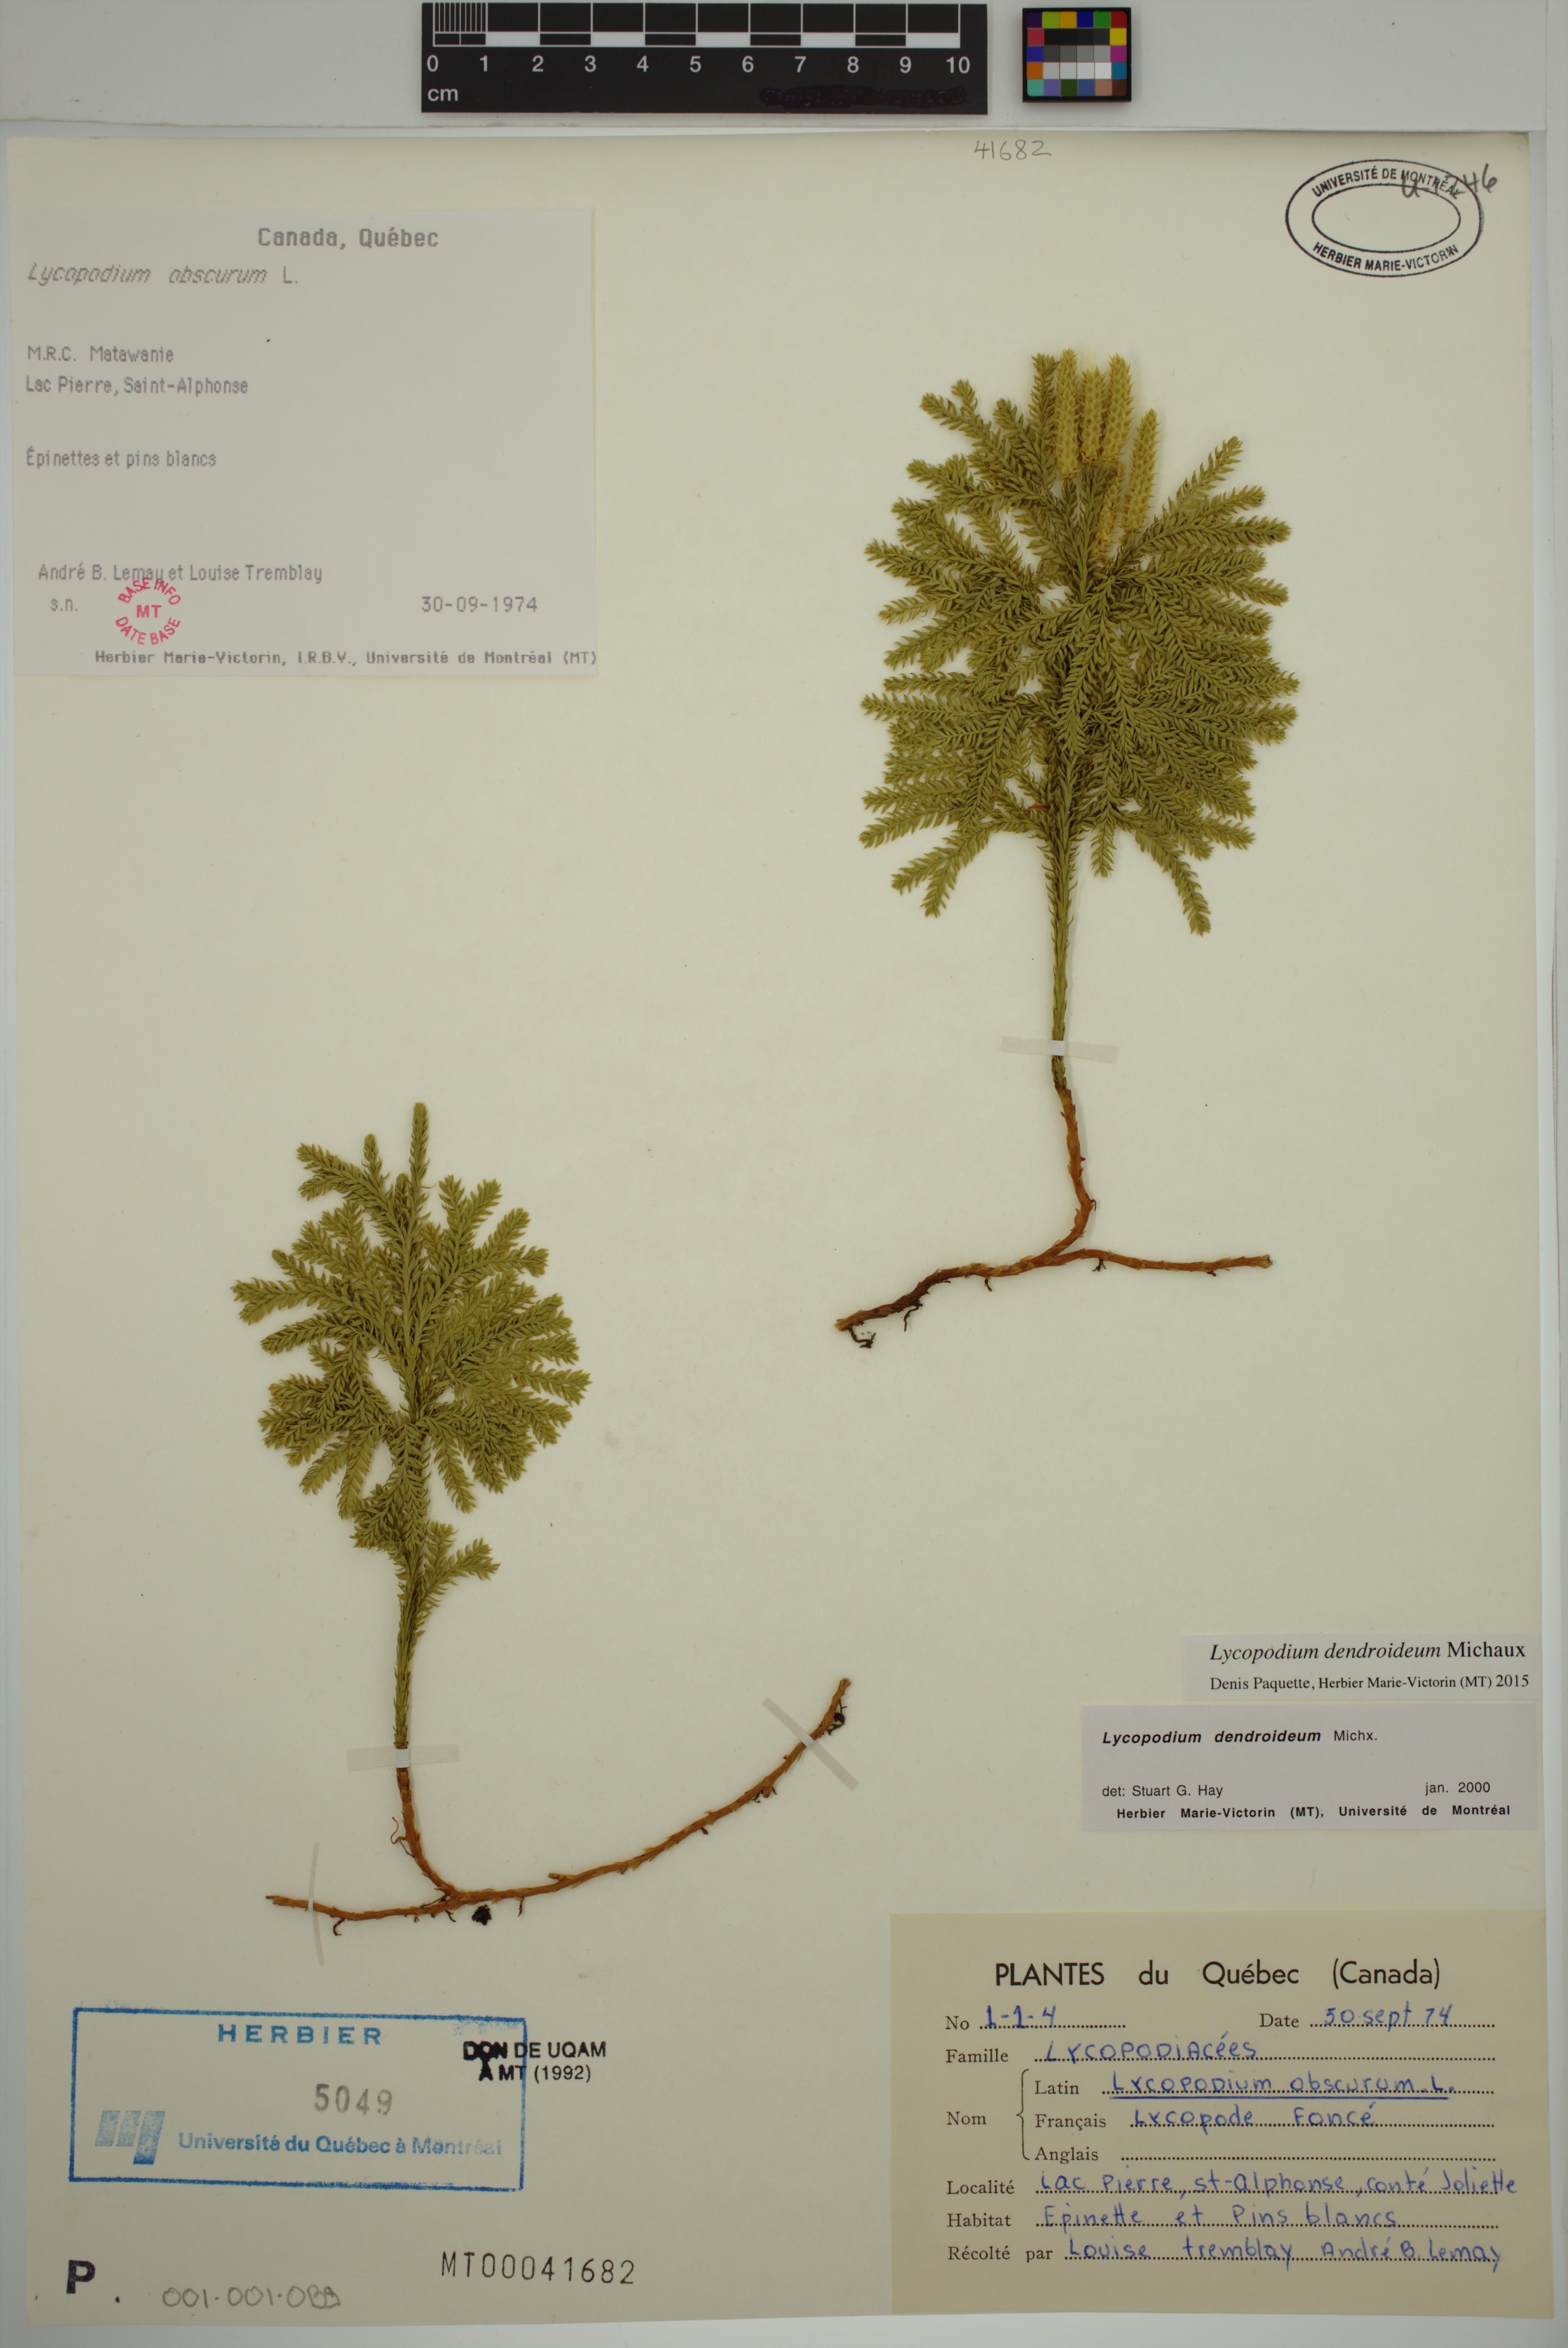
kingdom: Plantae
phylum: Tracheophyta
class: Lycopodiopsida
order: Lycopodiales
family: Lycopodiaceae
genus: Dendrolycopodium
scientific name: Dendrolycopodium dendroideum
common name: Northern tree-clubmoss
